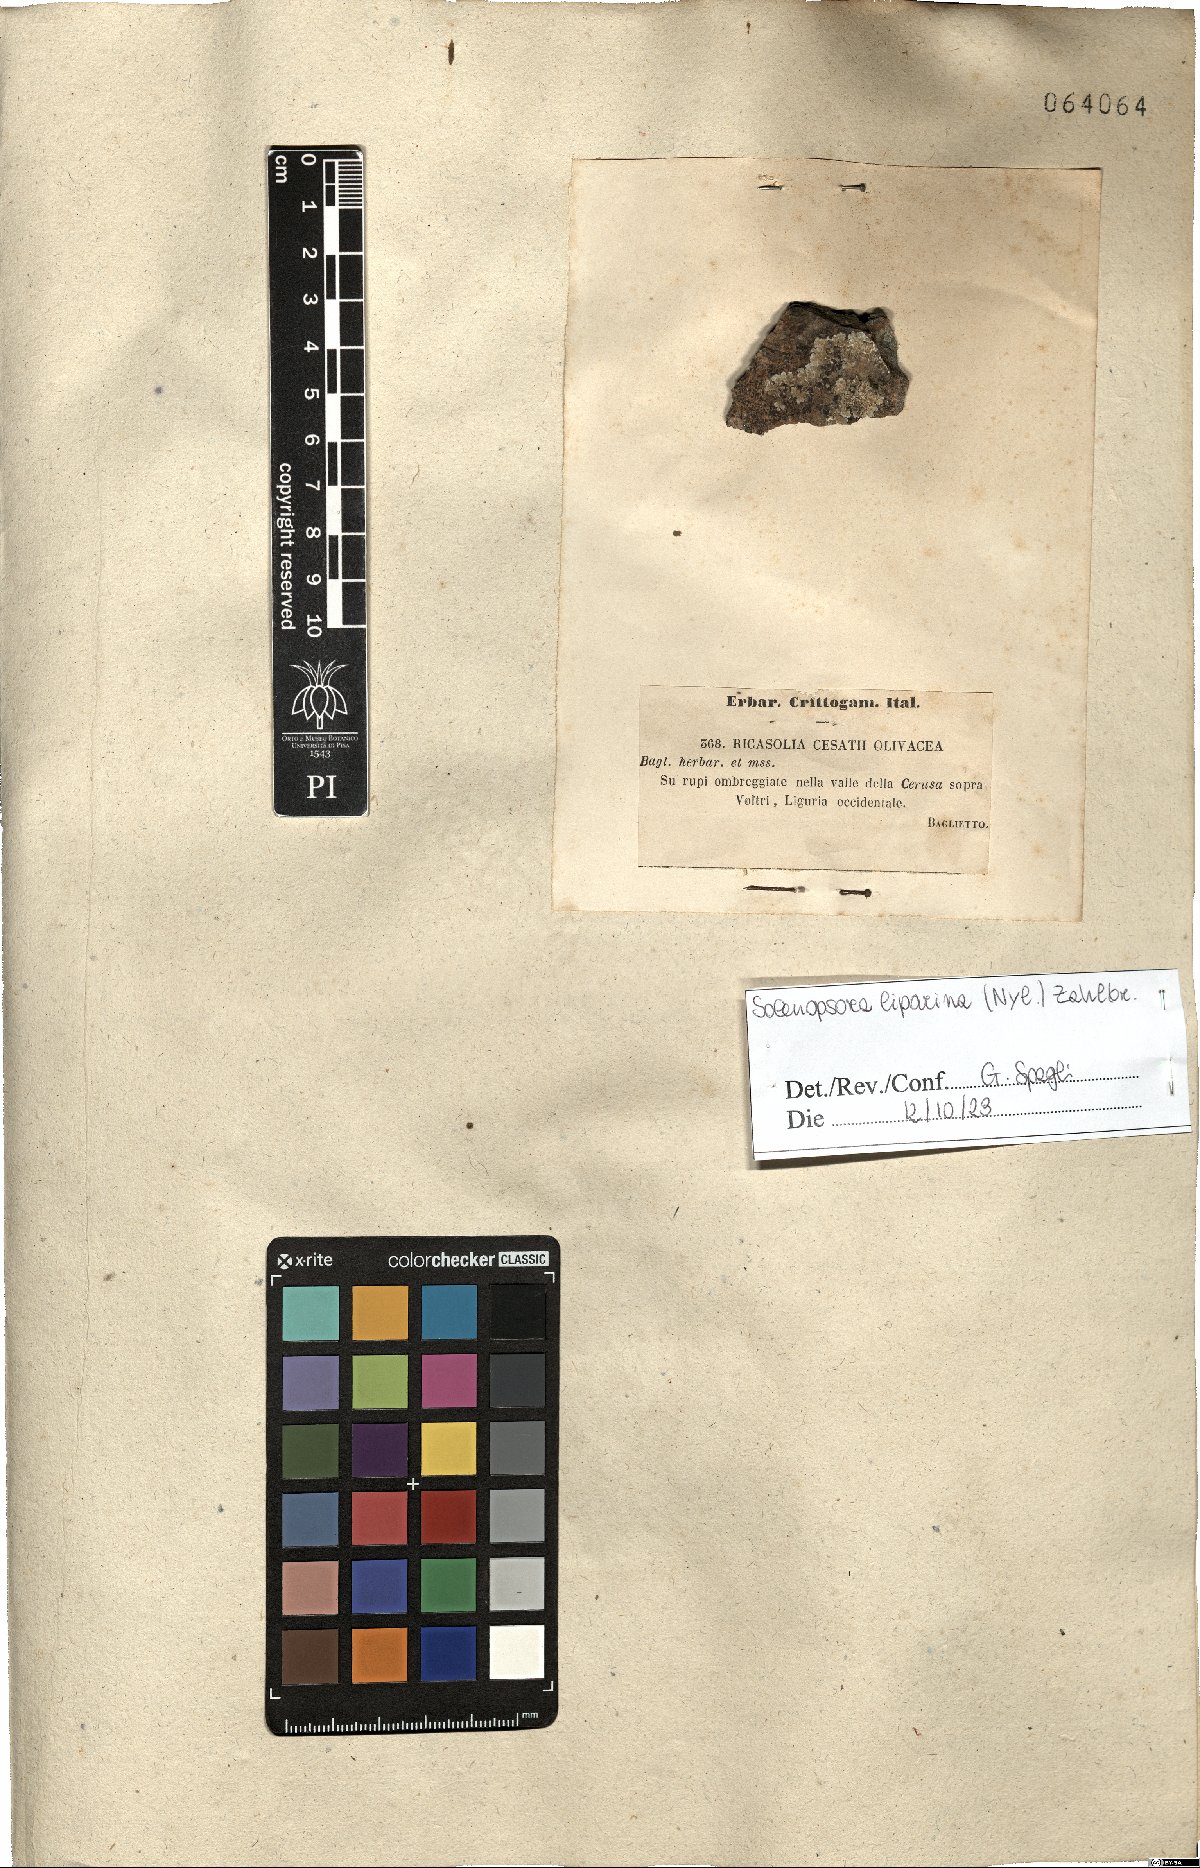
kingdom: Fungi
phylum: Ascomycota
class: Lecanoromycetes
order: Lecanorales
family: Ramalinaceae
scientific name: Ramalinaceae
